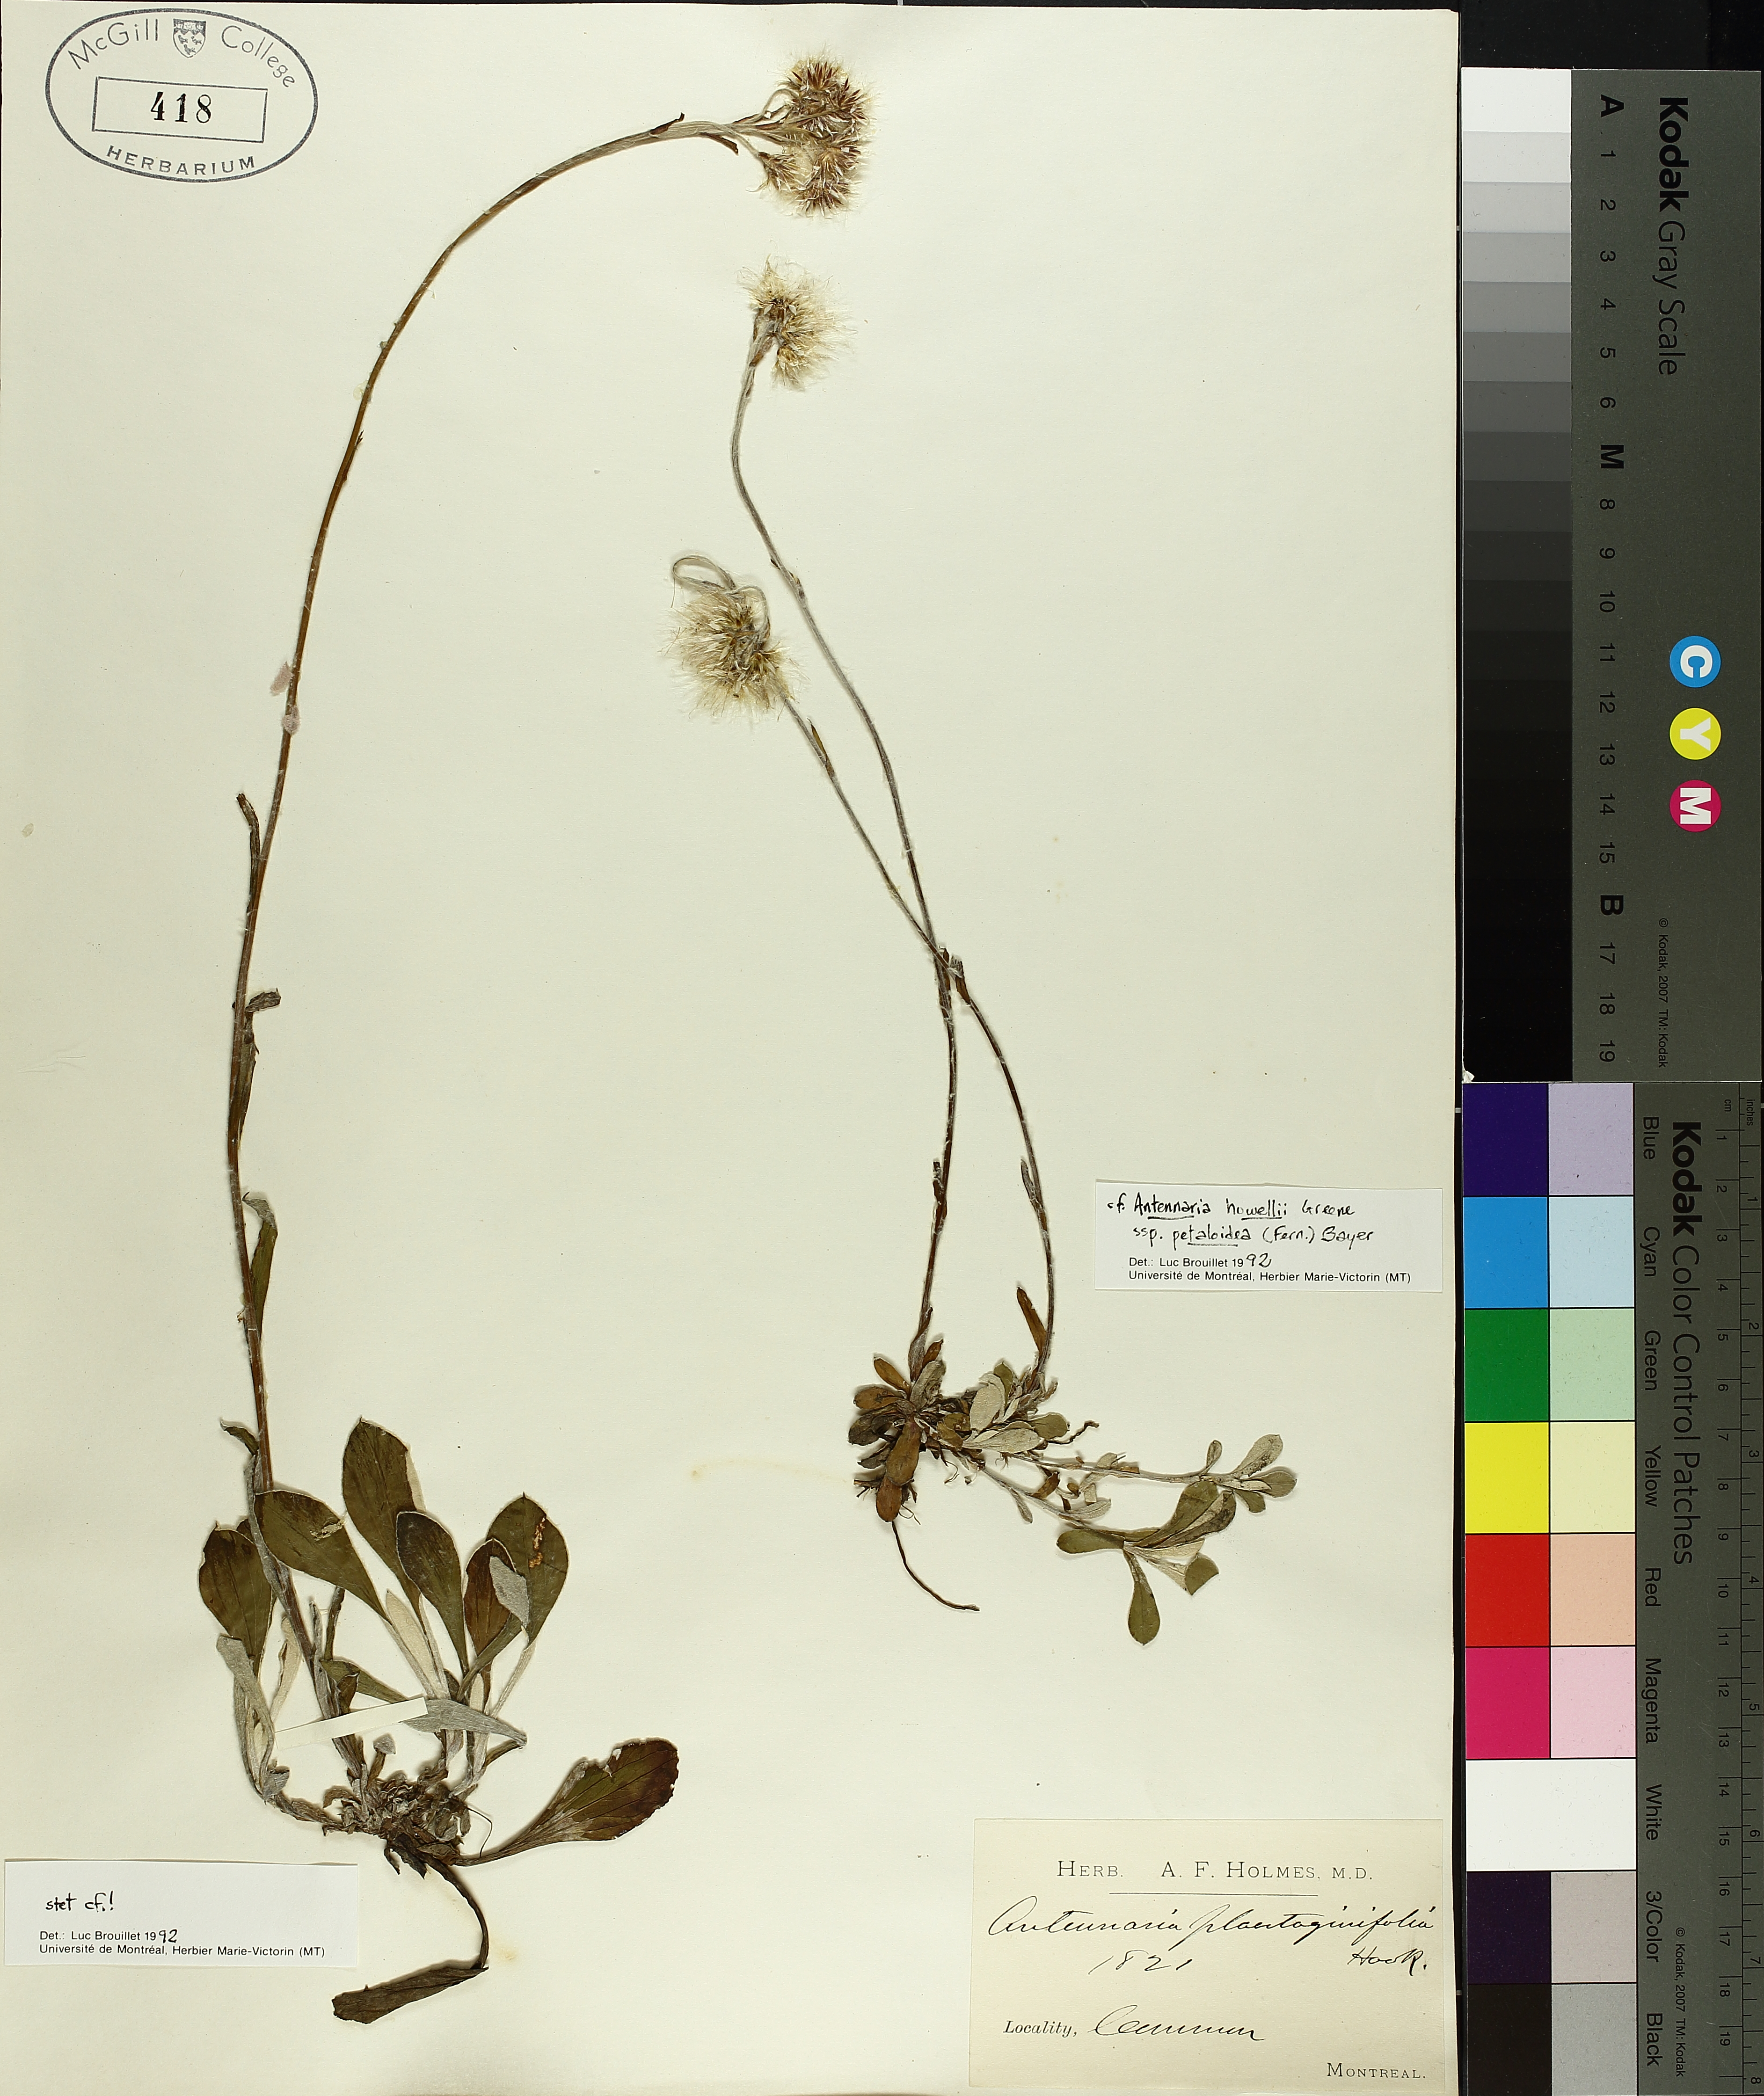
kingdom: Plantae
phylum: Tracheophyta
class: Magnoliopsida
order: Asterales
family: Asteraceae
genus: Anthemis
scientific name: Anthemis cotula
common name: Stinking chamomile
